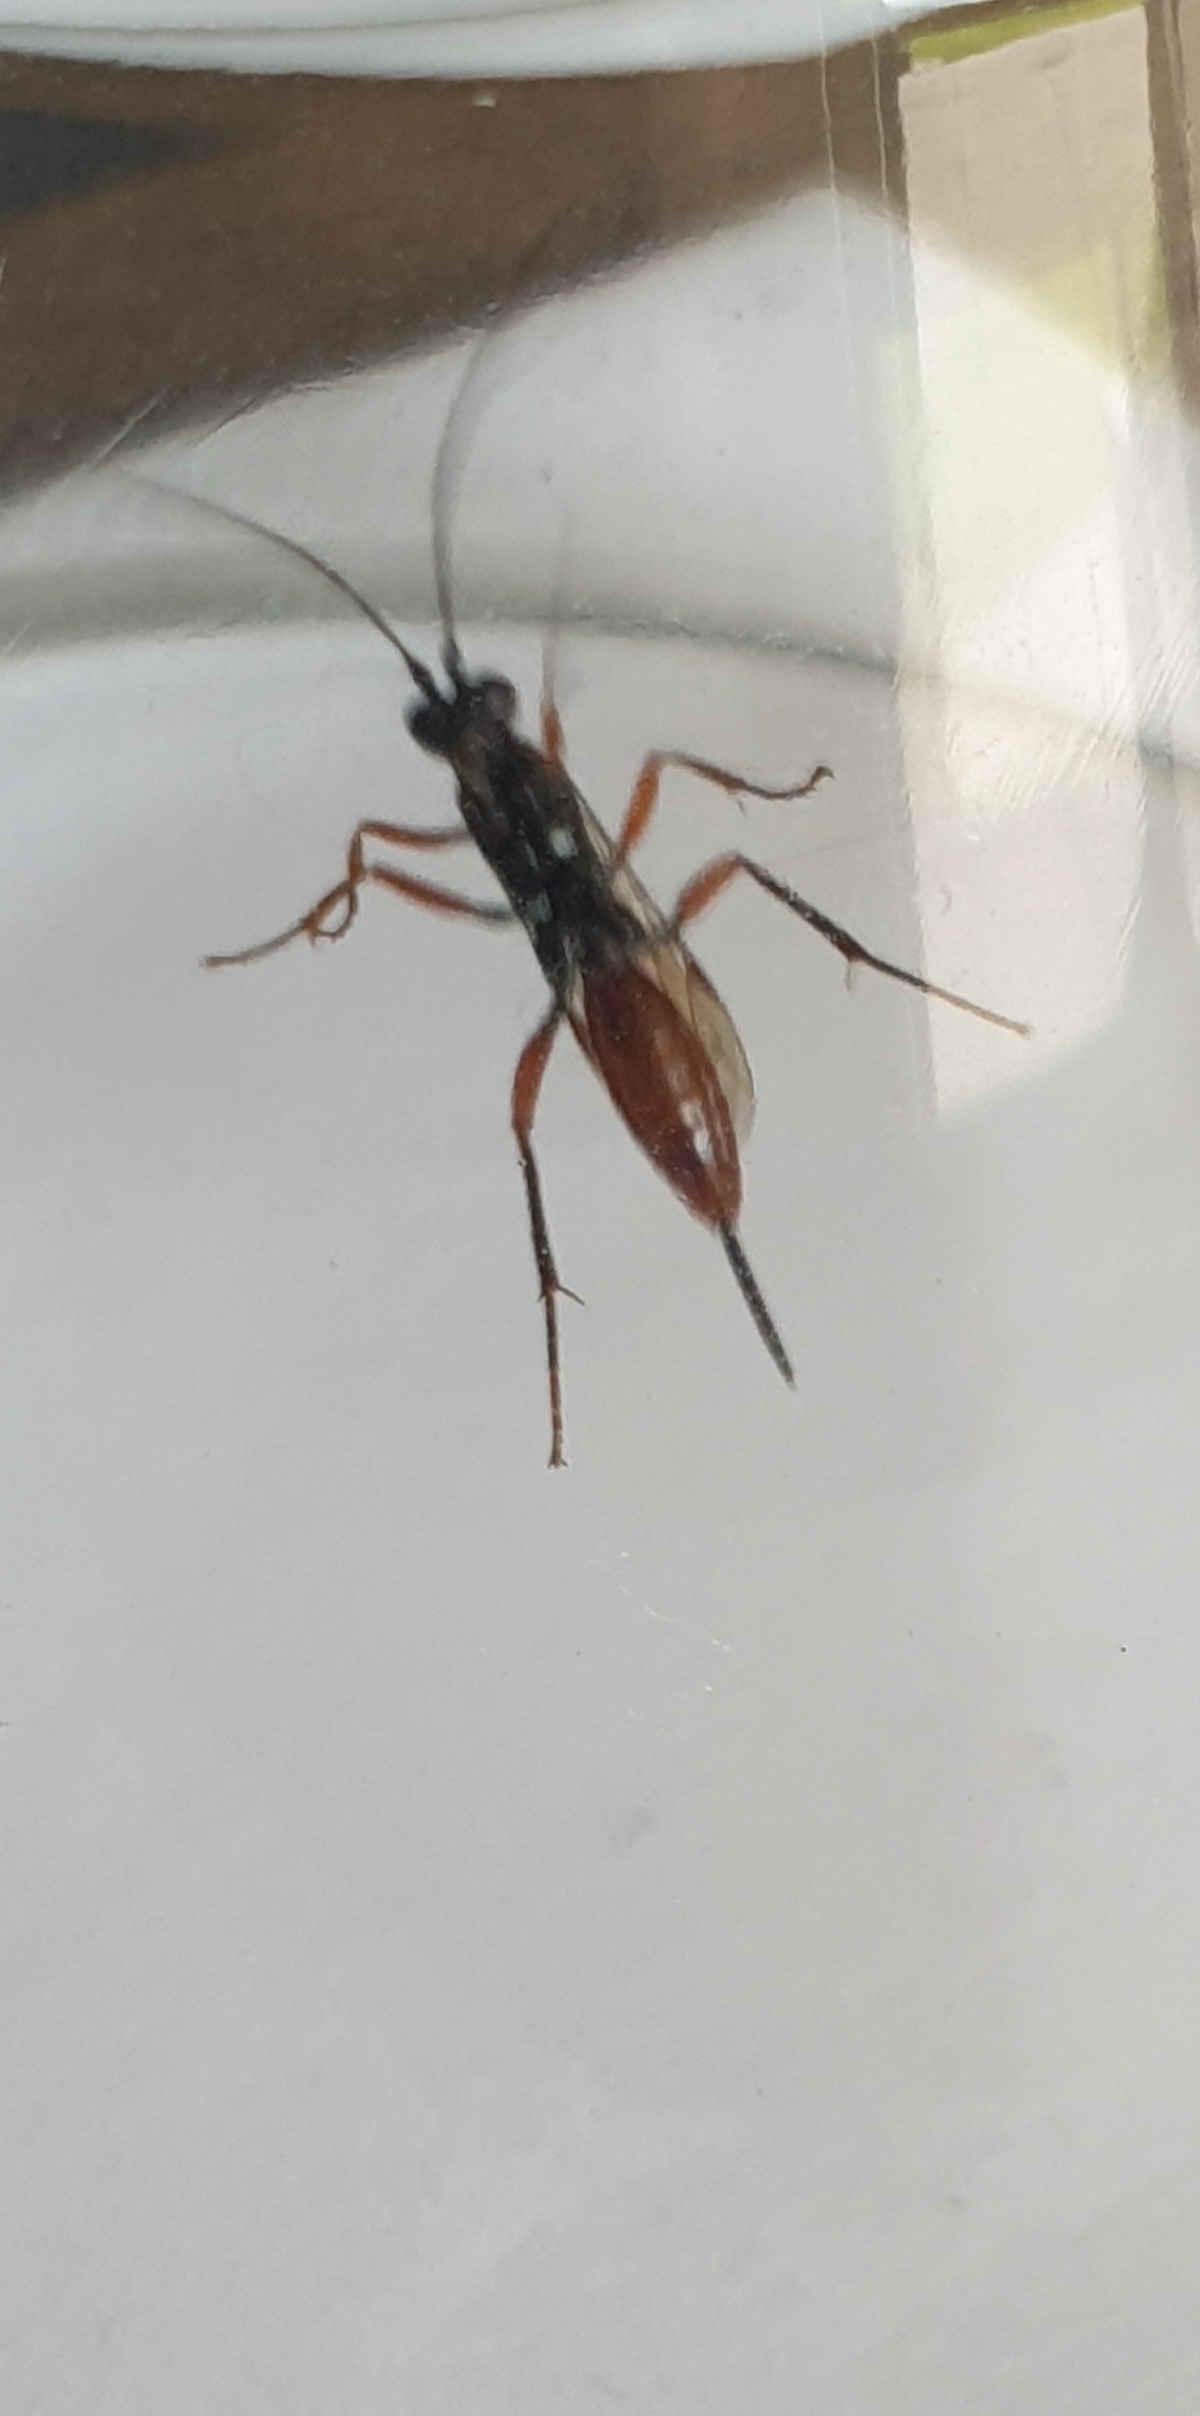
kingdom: Animalia
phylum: Arthropoda
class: Insecta
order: Hymenoptera
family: Ichneumonidae
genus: Cryptus
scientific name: Cryptus armator
